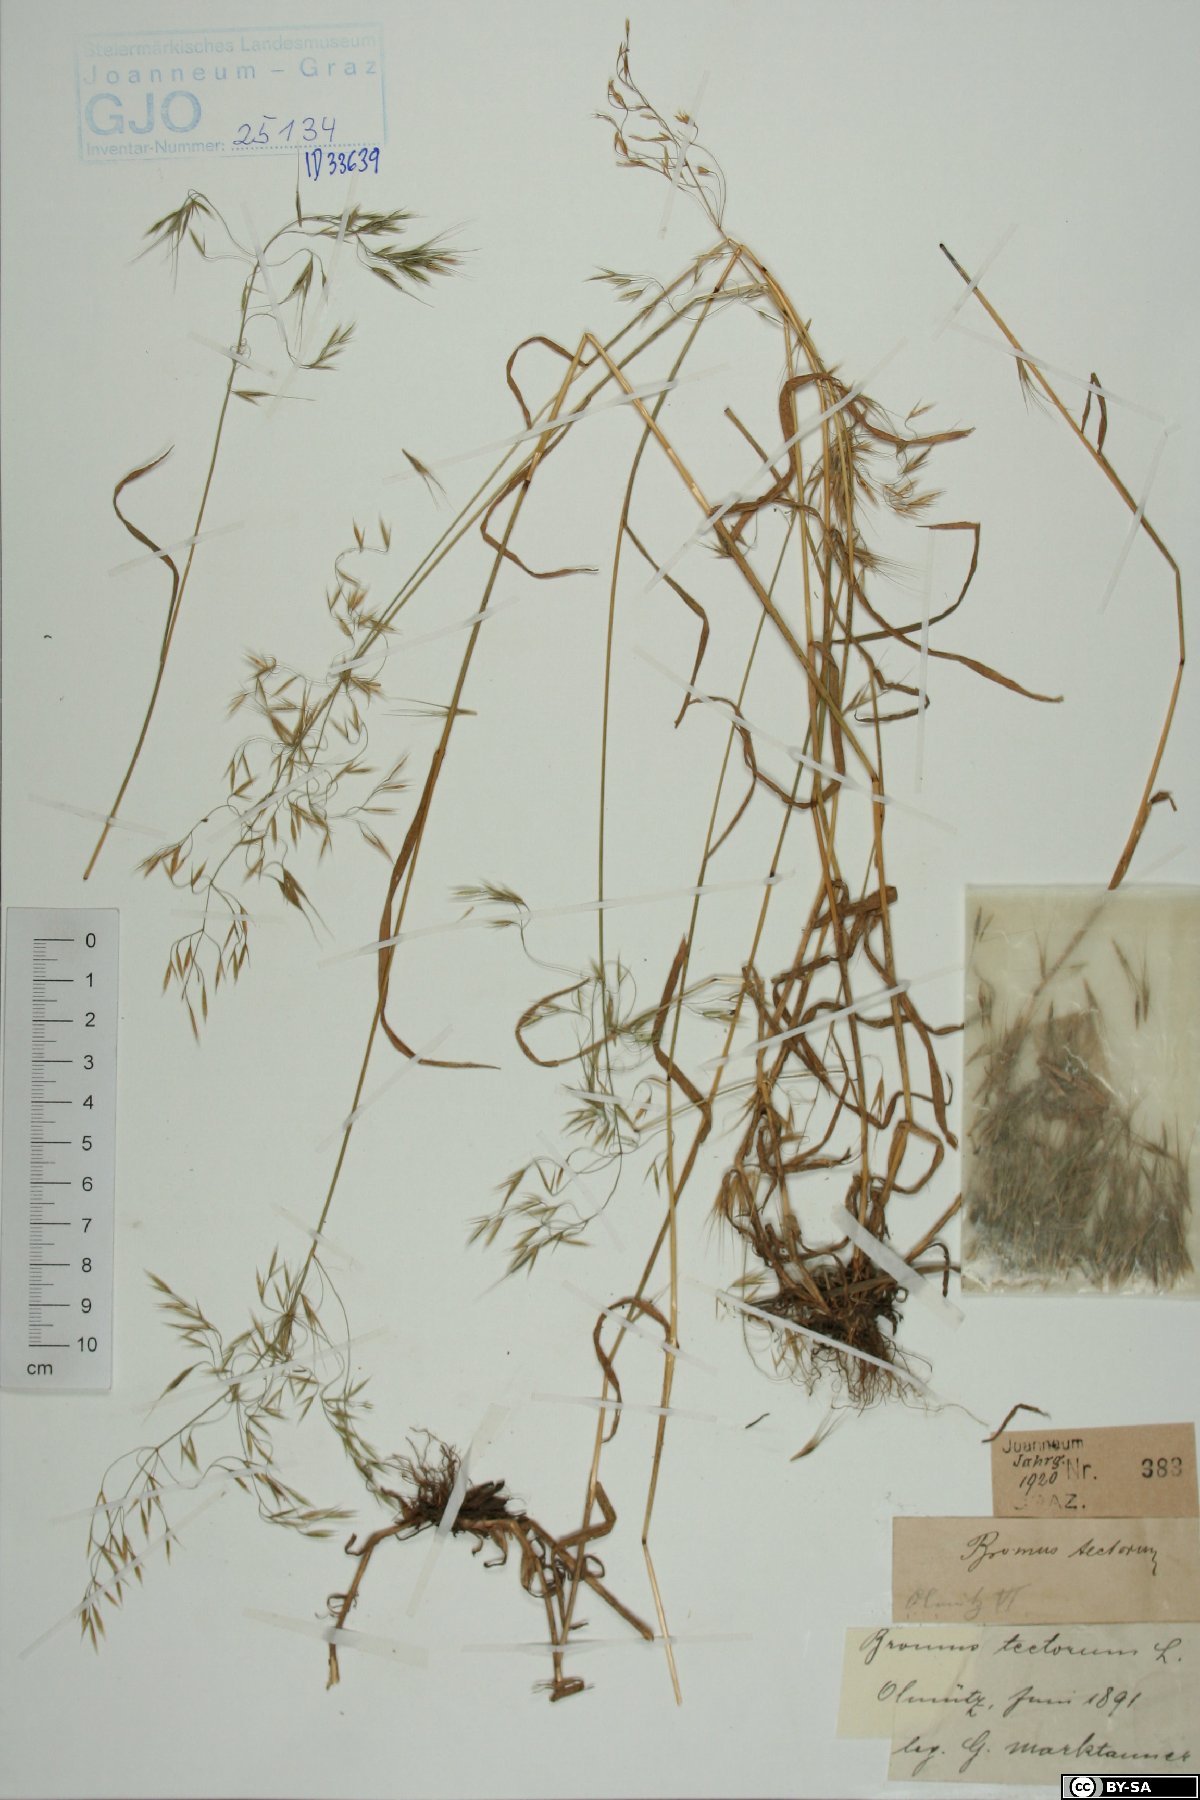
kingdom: Plantae
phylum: Tracheophyta
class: Liliopsida
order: Poales
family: Poaceae
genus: Bromus
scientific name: Bromus tectorum
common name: Cheatgrass
